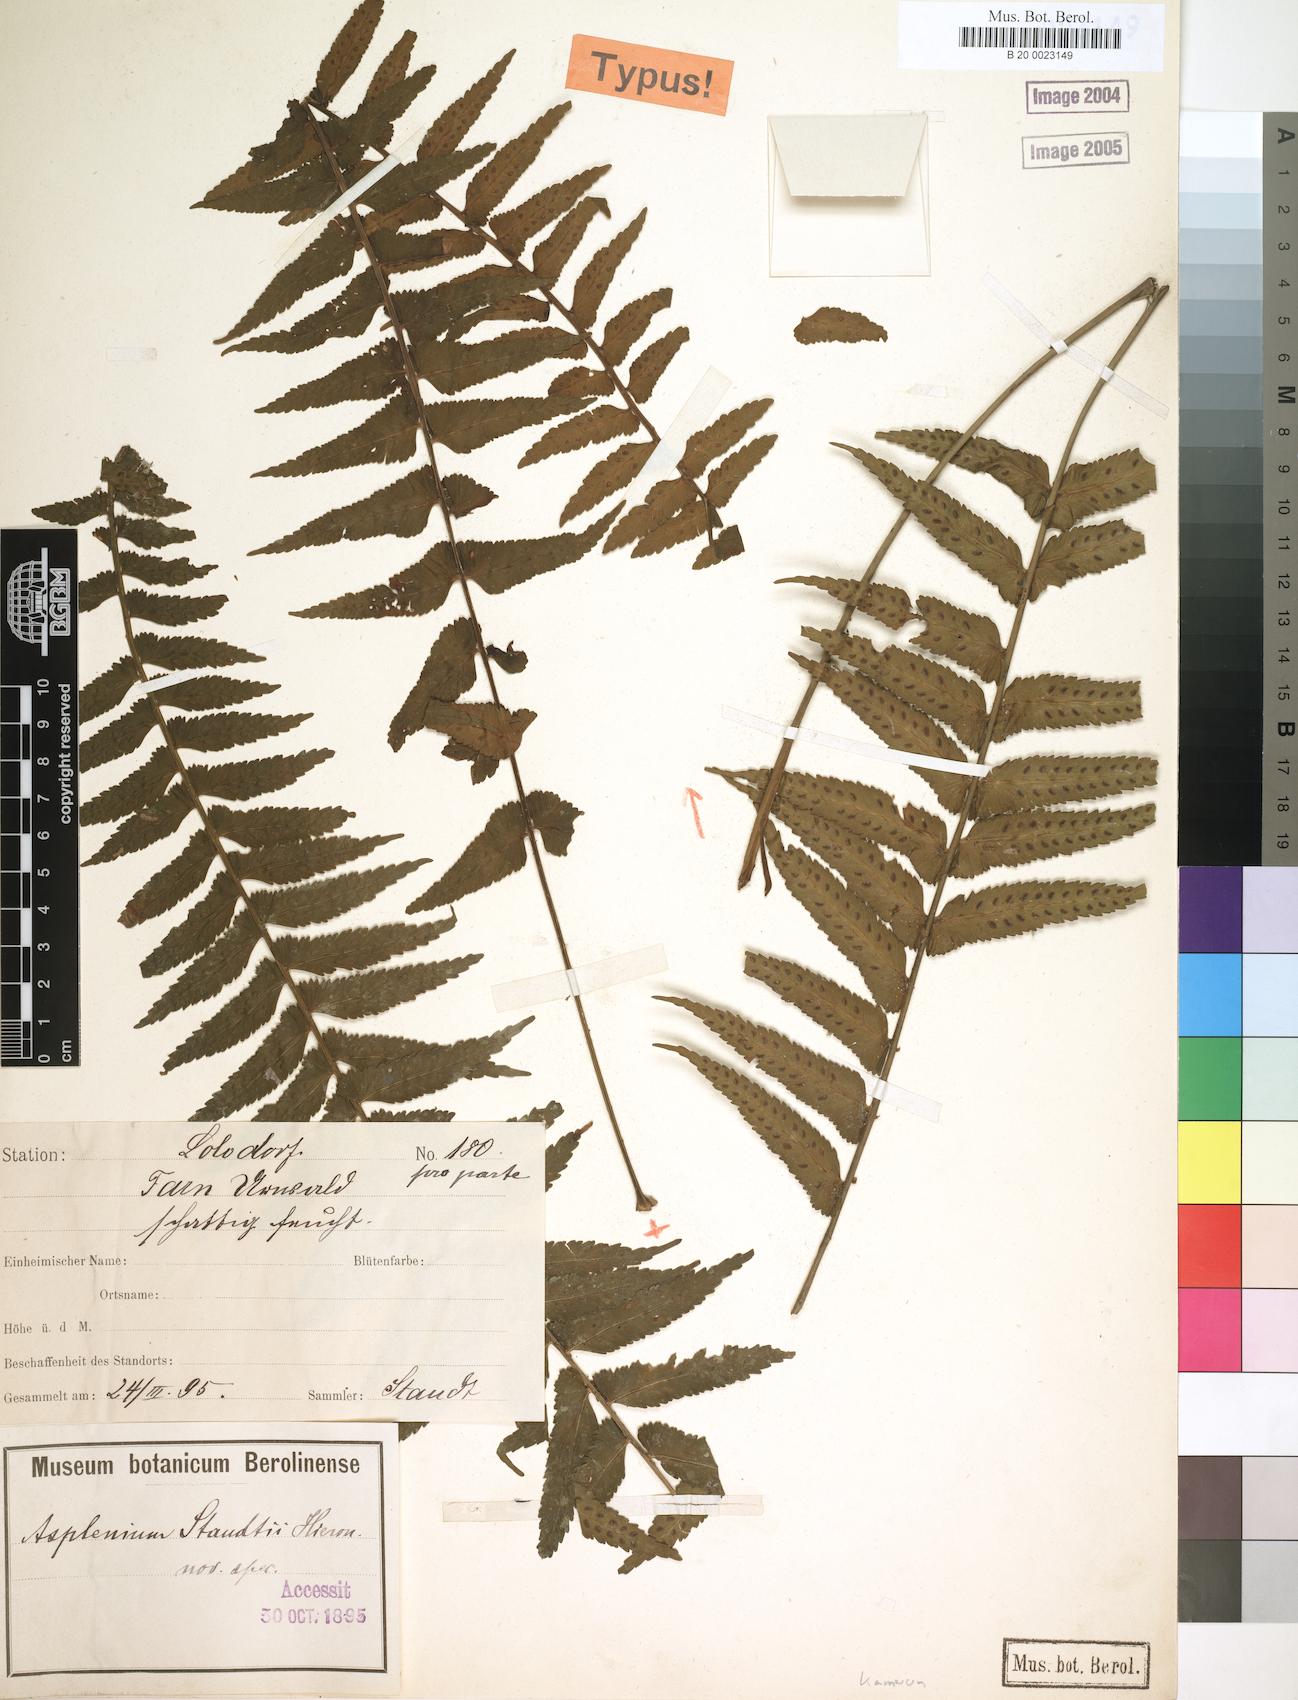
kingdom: Plantae
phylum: Tracheophyta
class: Polypodiopsida
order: Polypodiales
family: Aspleniaceae
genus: Asplenium
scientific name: Asplenium staudtii
